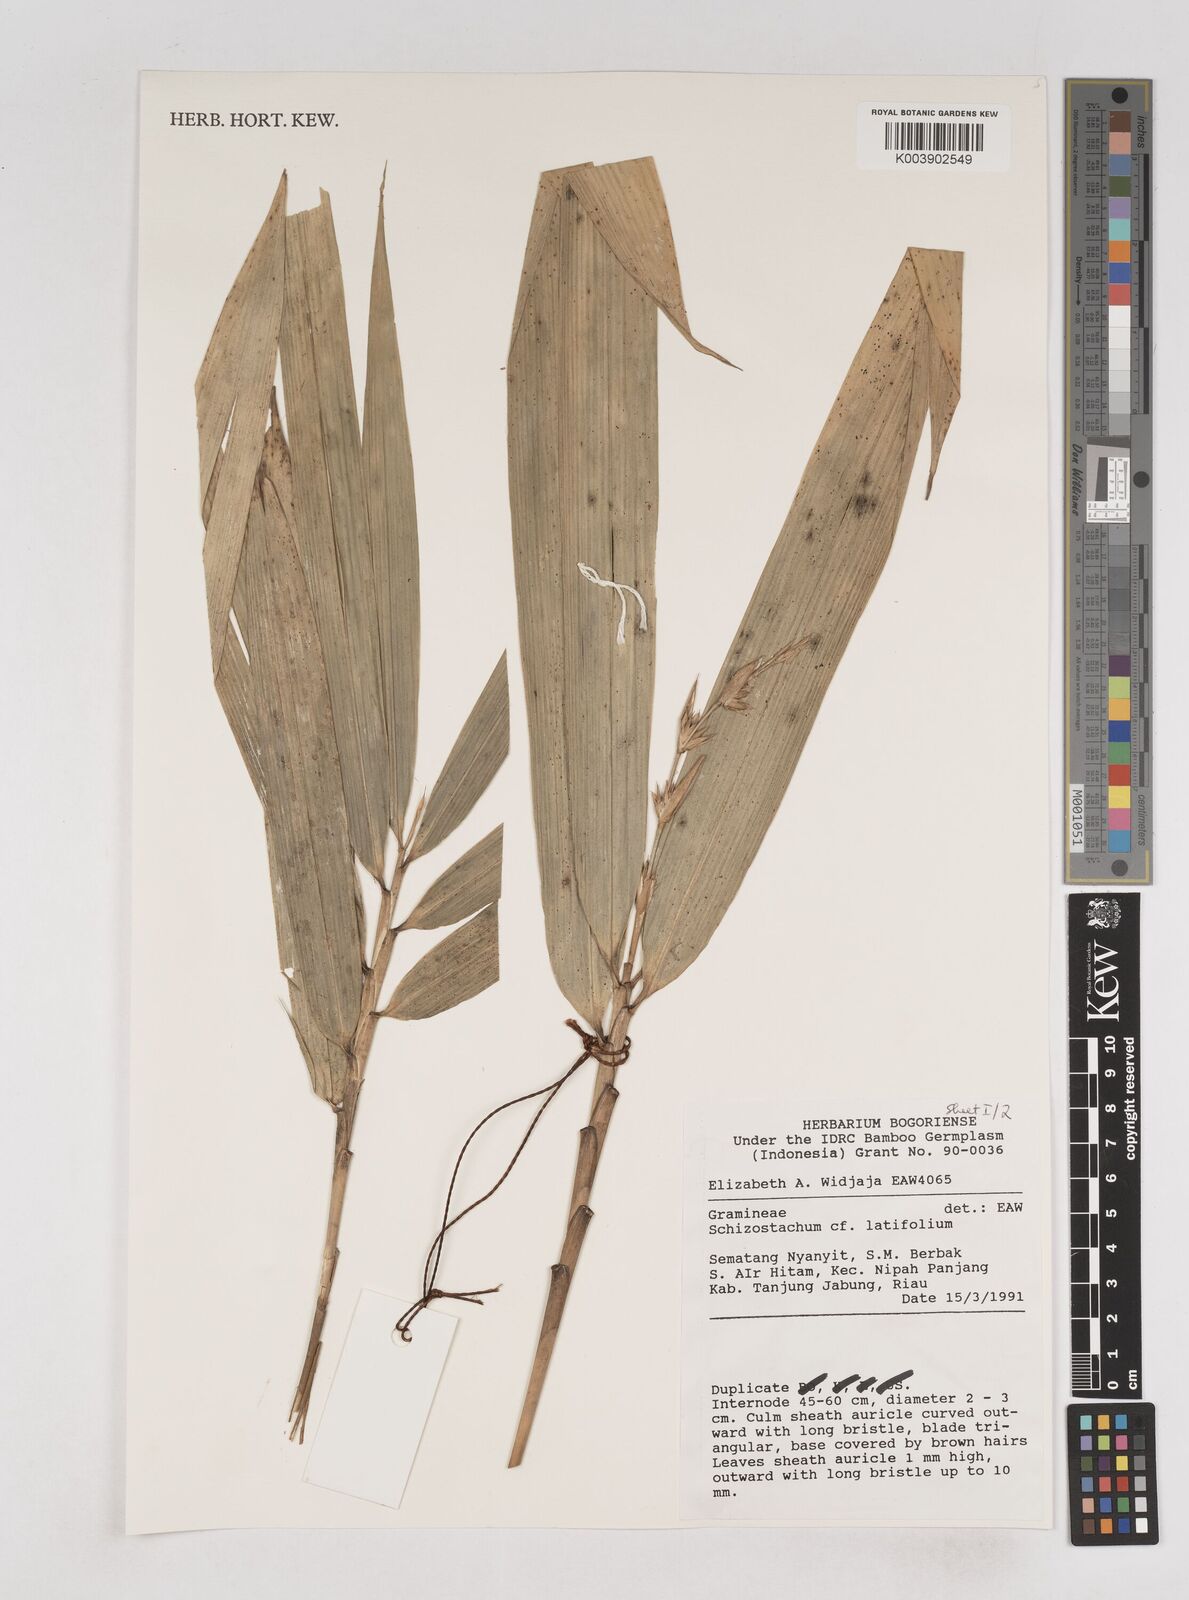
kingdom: Plantae
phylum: Tracheophyta
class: Liliopsida
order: Poales
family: Poaceae
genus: Schizostachyum
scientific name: Schizostachyum
